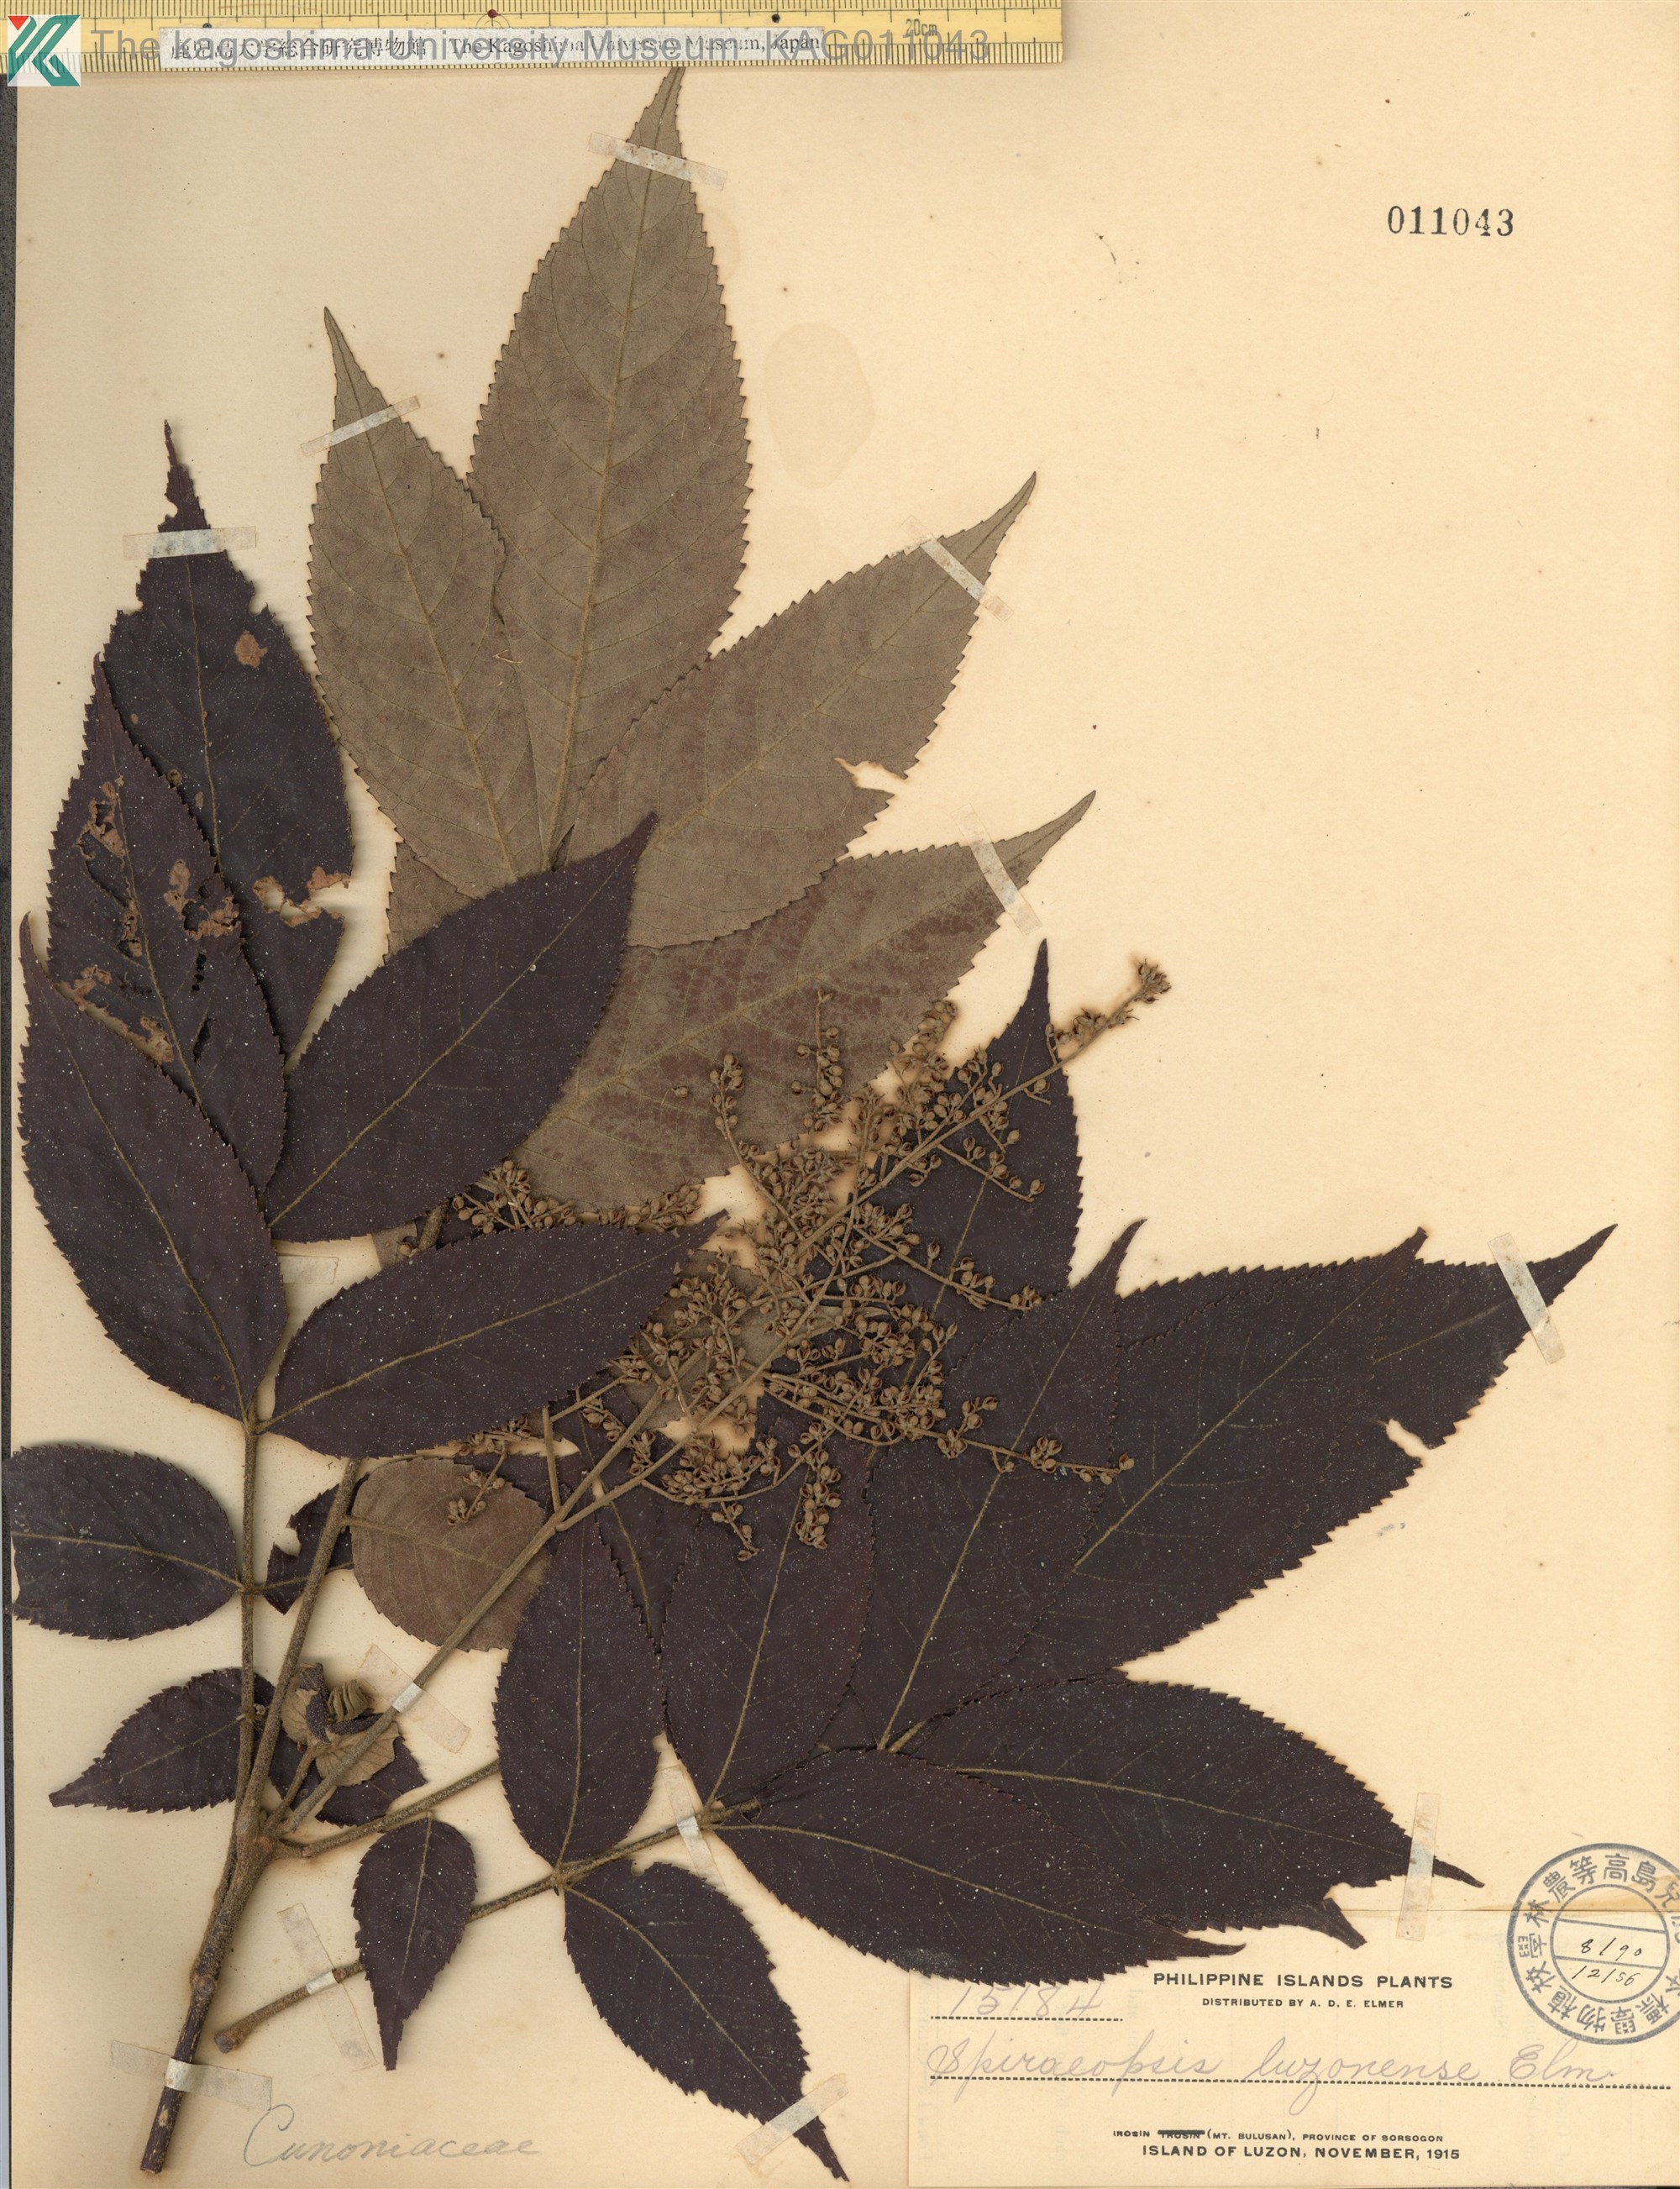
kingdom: Plantae
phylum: Tracheophyta
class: Magnoliopsida
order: Oxalidales
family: Cunoniaceae
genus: Ackama
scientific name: Ackama celebica
